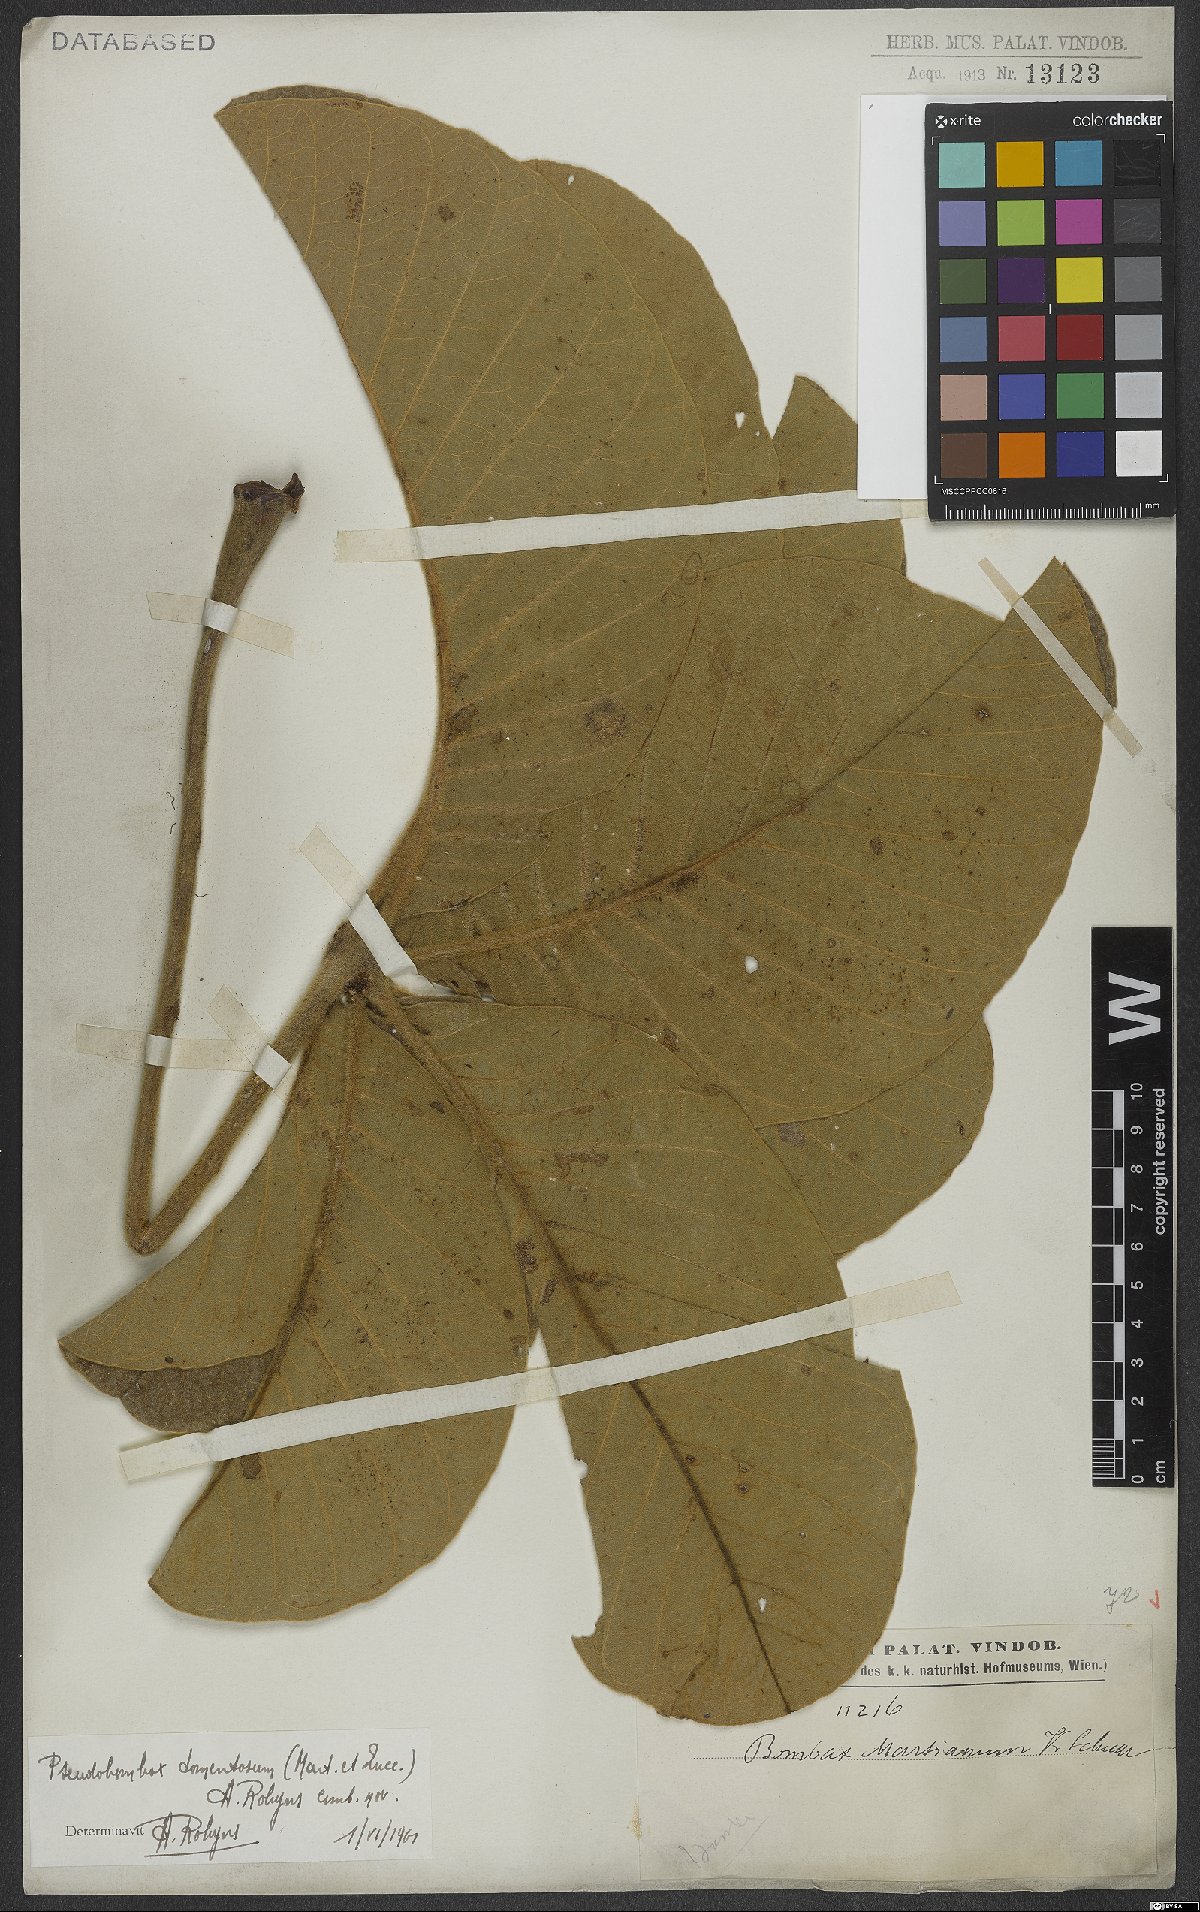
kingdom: Plantae
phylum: Tracheophyta
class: Magnoliopsida
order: Malvales
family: Malvaceae
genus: Pseudobombax
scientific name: Pseudobombax tomentosum
